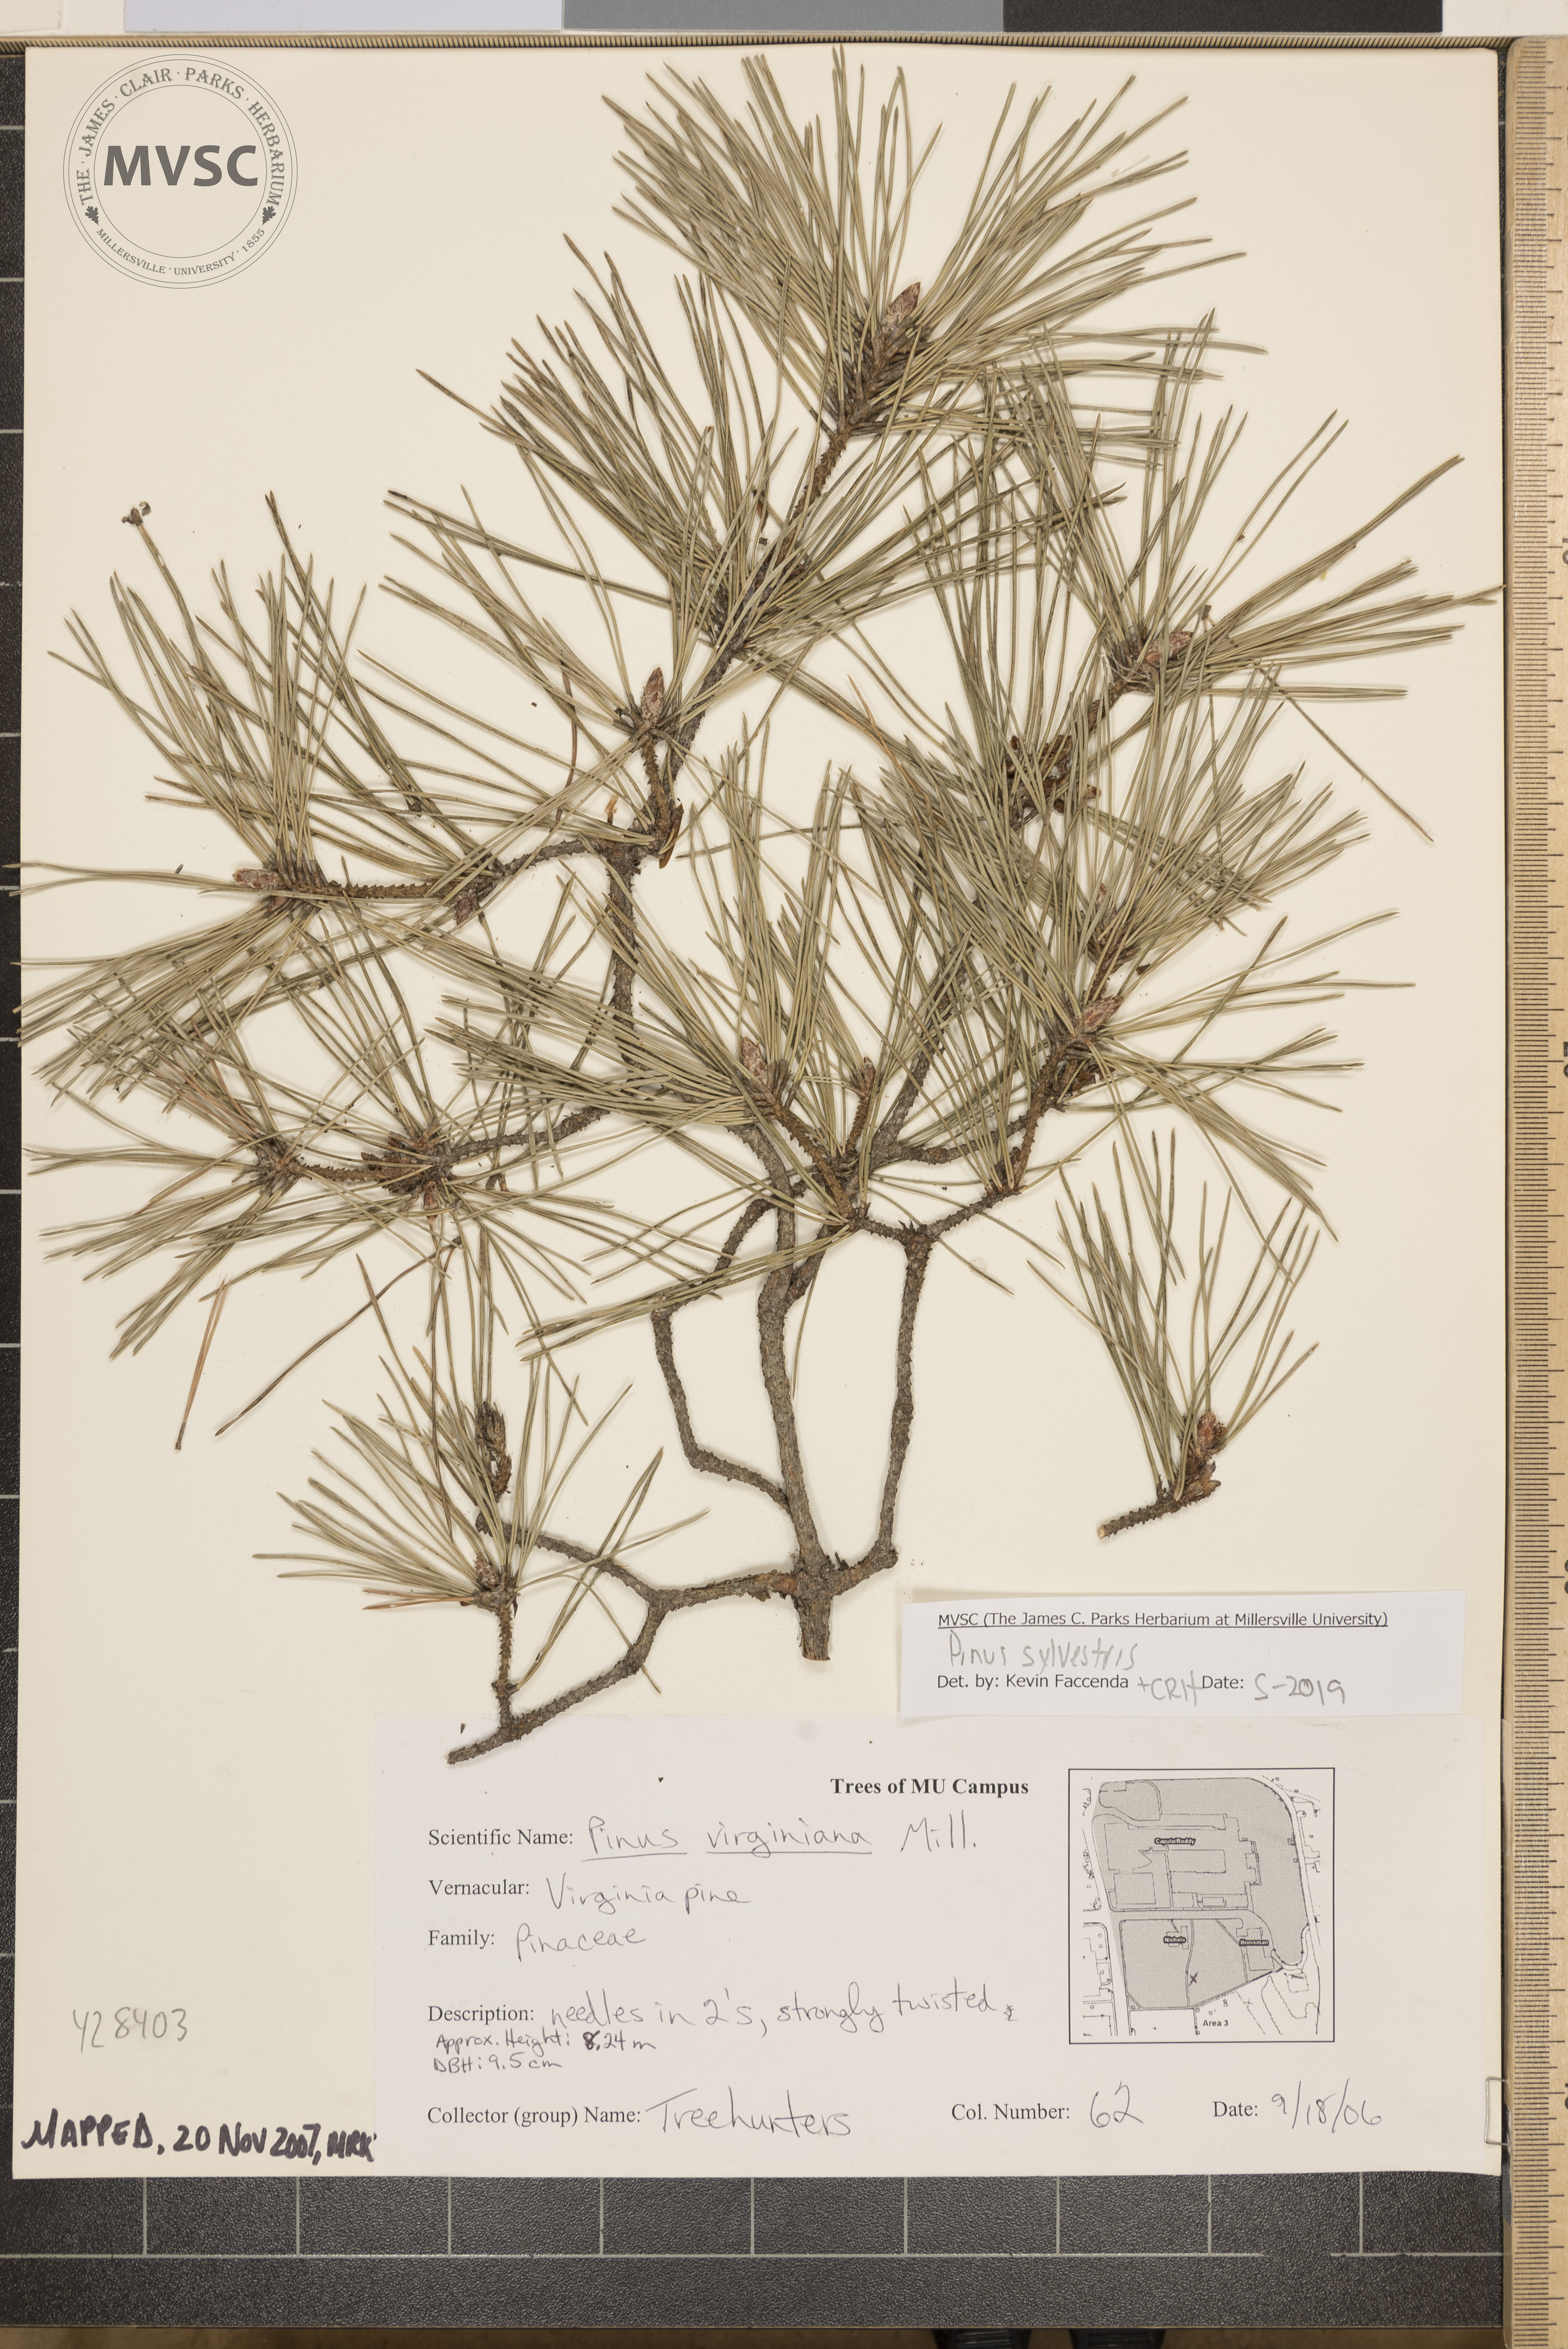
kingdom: Plantae
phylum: Tracheophyta
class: Pinopsida
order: Pinales
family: Pinaceae
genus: Pinus
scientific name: Pinus sylvestris
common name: Scots pine
